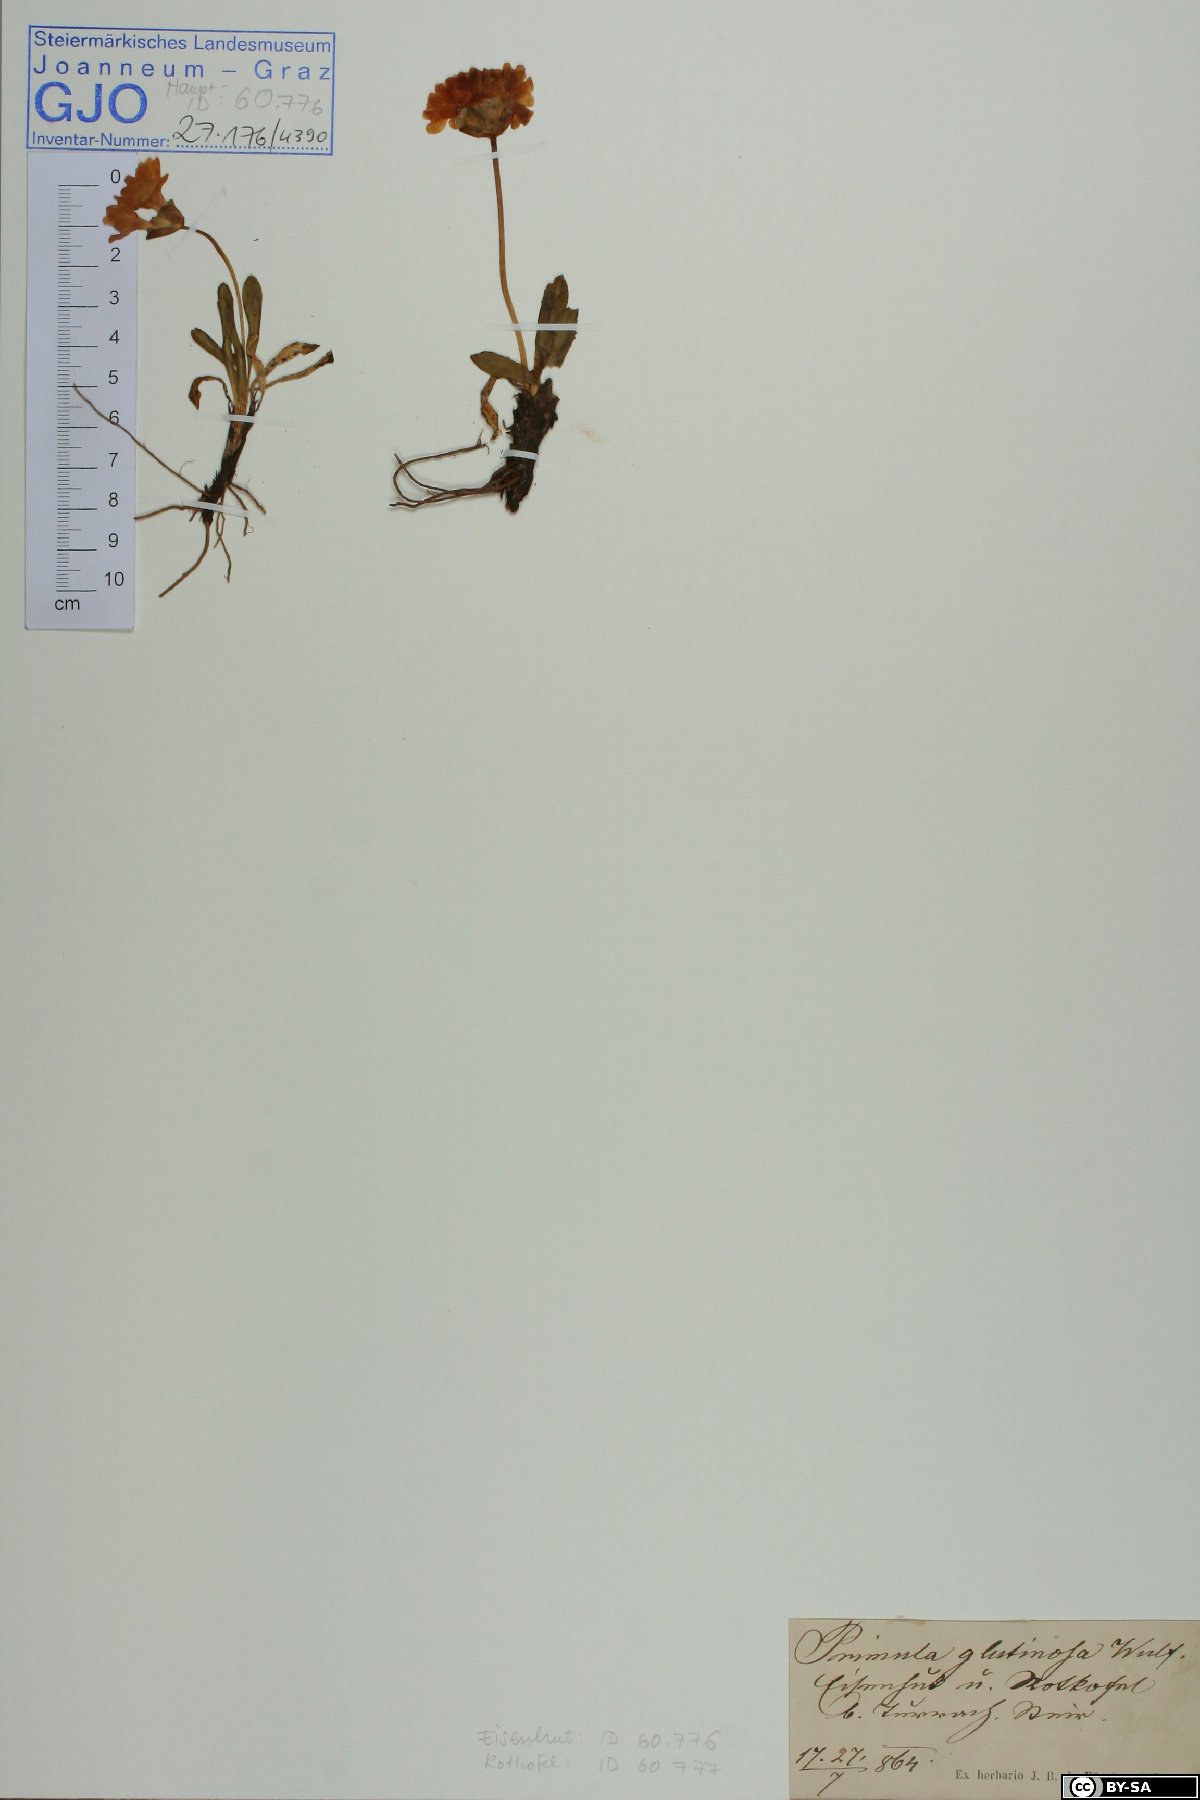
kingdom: Plantae
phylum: Tracheophyta
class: Magnoliopsida
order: Ericales
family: Primulaceae
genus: Primula
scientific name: Primula glutinosa
